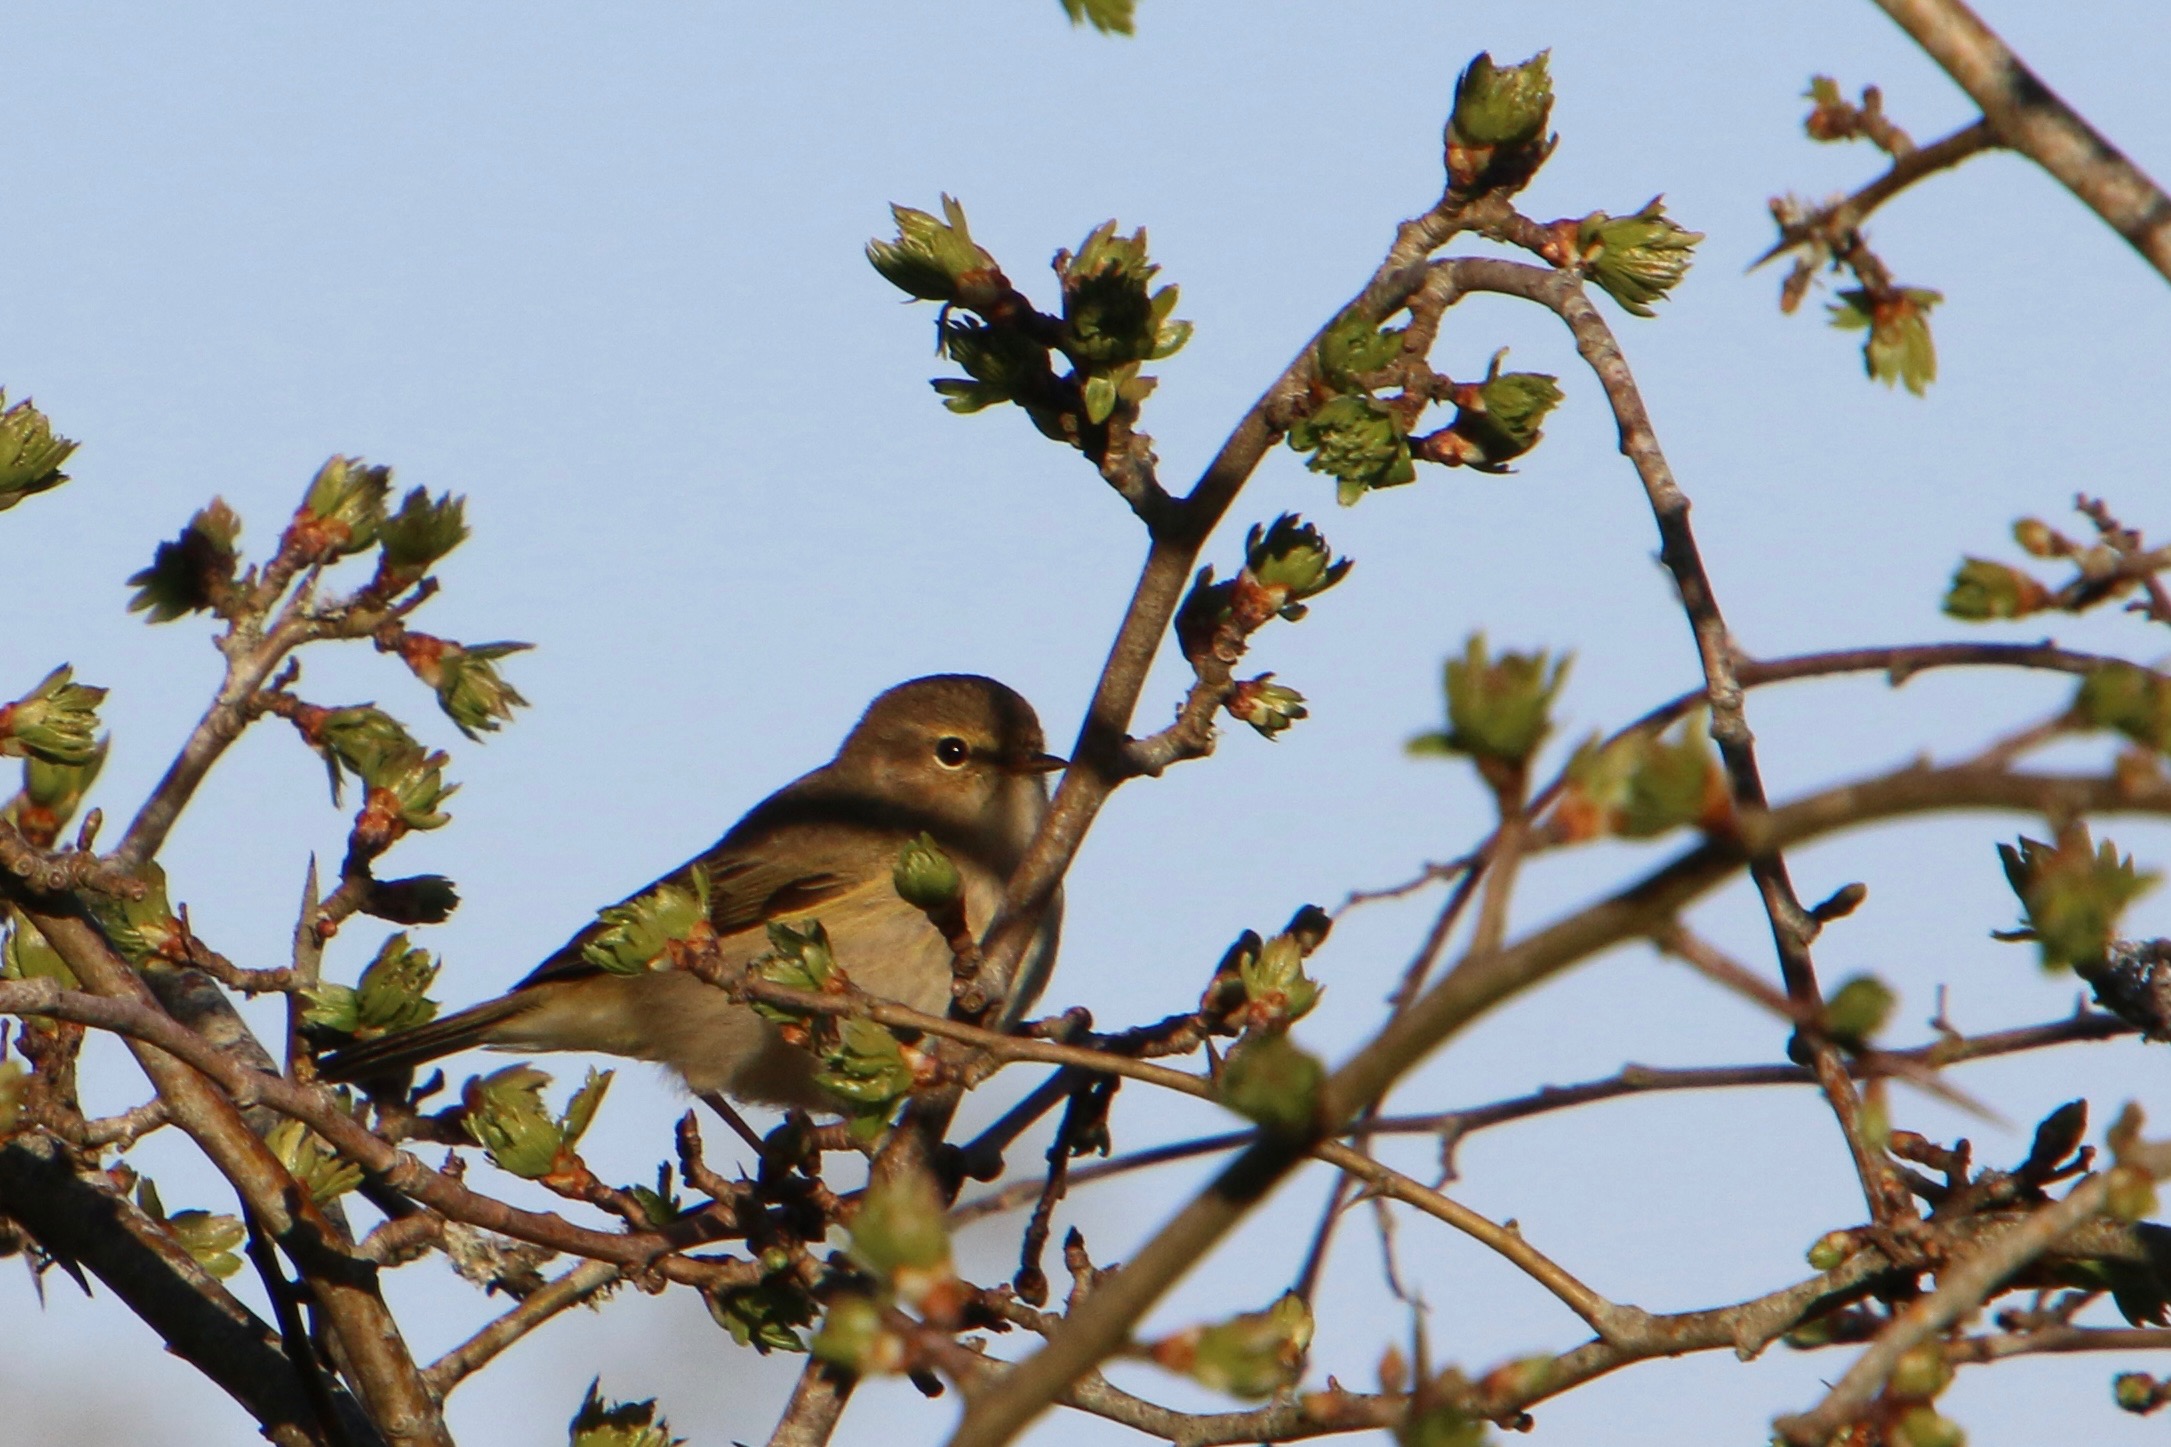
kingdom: Animalia
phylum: Chordata
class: Aves
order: Passeriformes
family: Phylloscopidae
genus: Phylloscopus
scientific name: Phylloscopus collybita
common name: Gransanger
